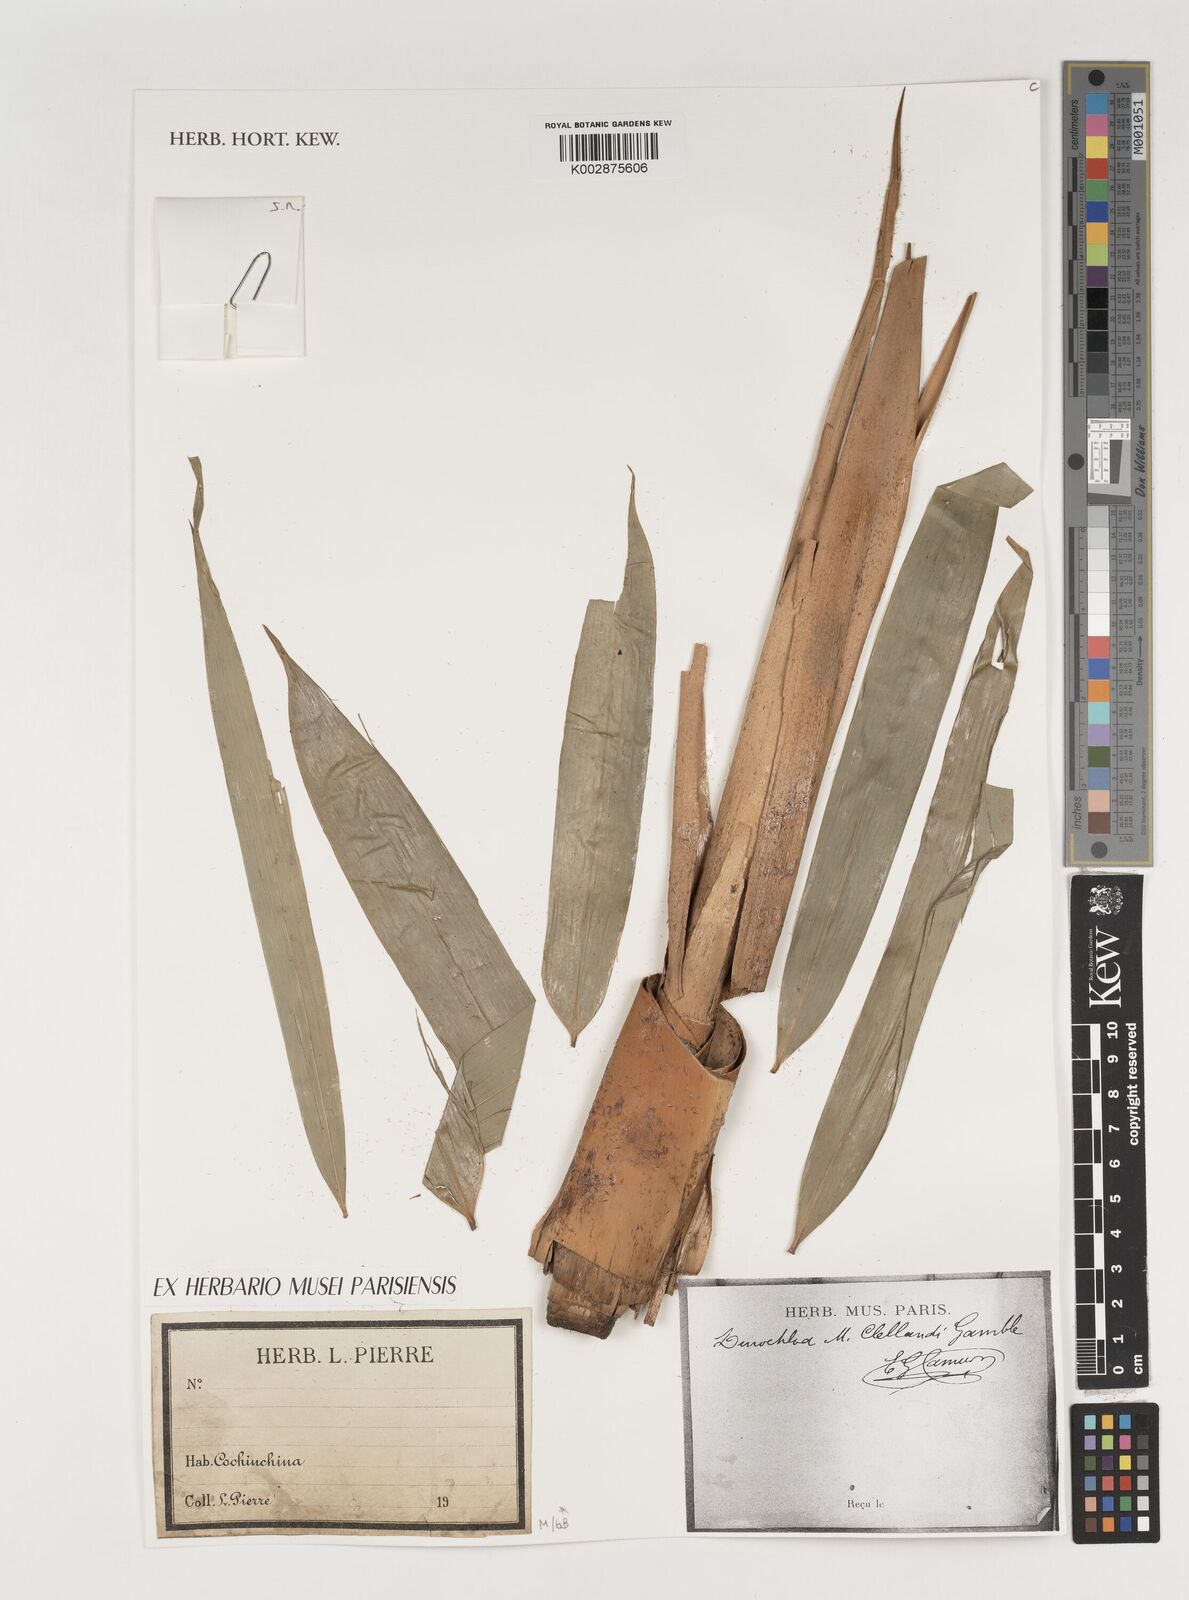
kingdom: Plantae
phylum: Tracheophyta
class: Liliopsida
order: Poales
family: Poaceae
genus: Dinochloa
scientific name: Dinochloa malayana
